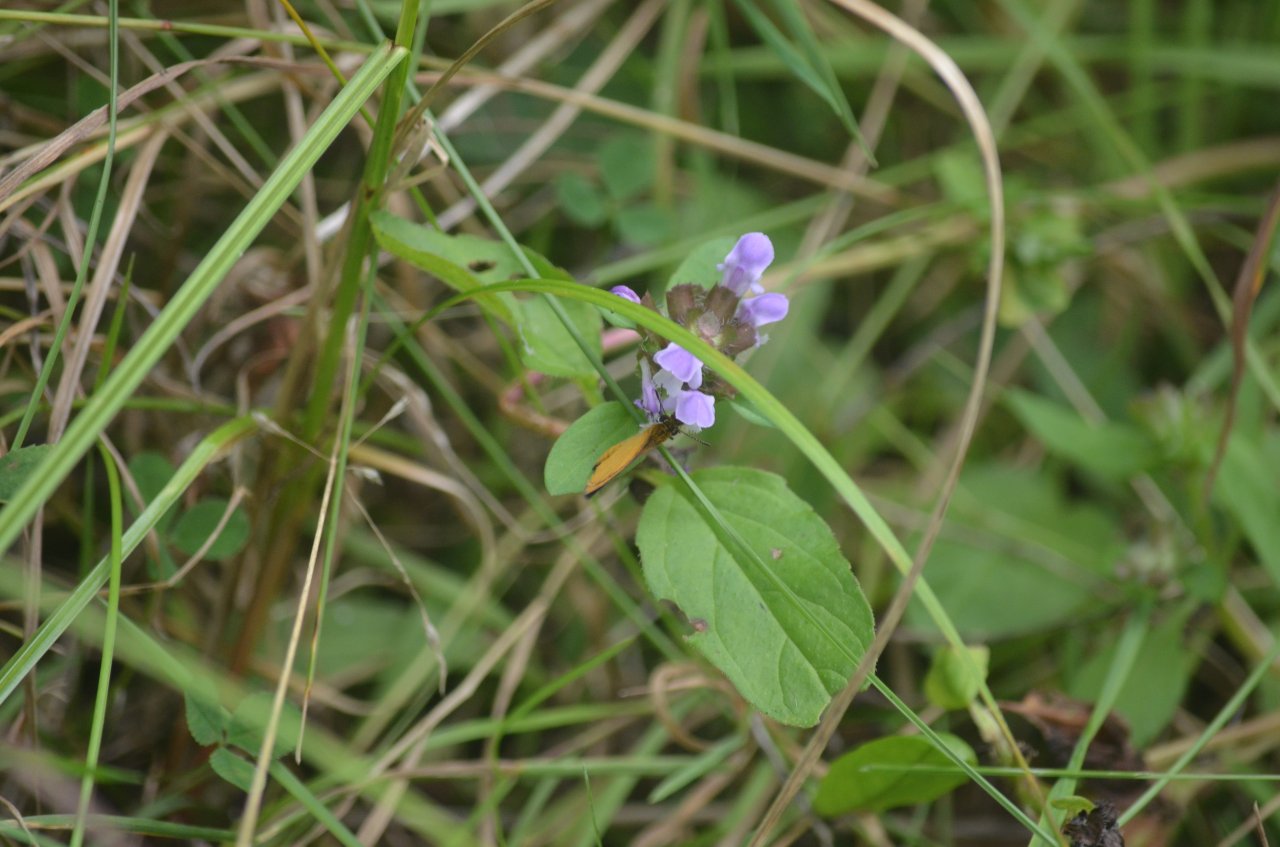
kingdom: Animalia
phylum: Arthropoda
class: Insecta
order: Lepidoptera
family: Hesperiidae
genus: Ancyloxypha
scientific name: Ancyloxypha numitor
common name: Least Skipper
